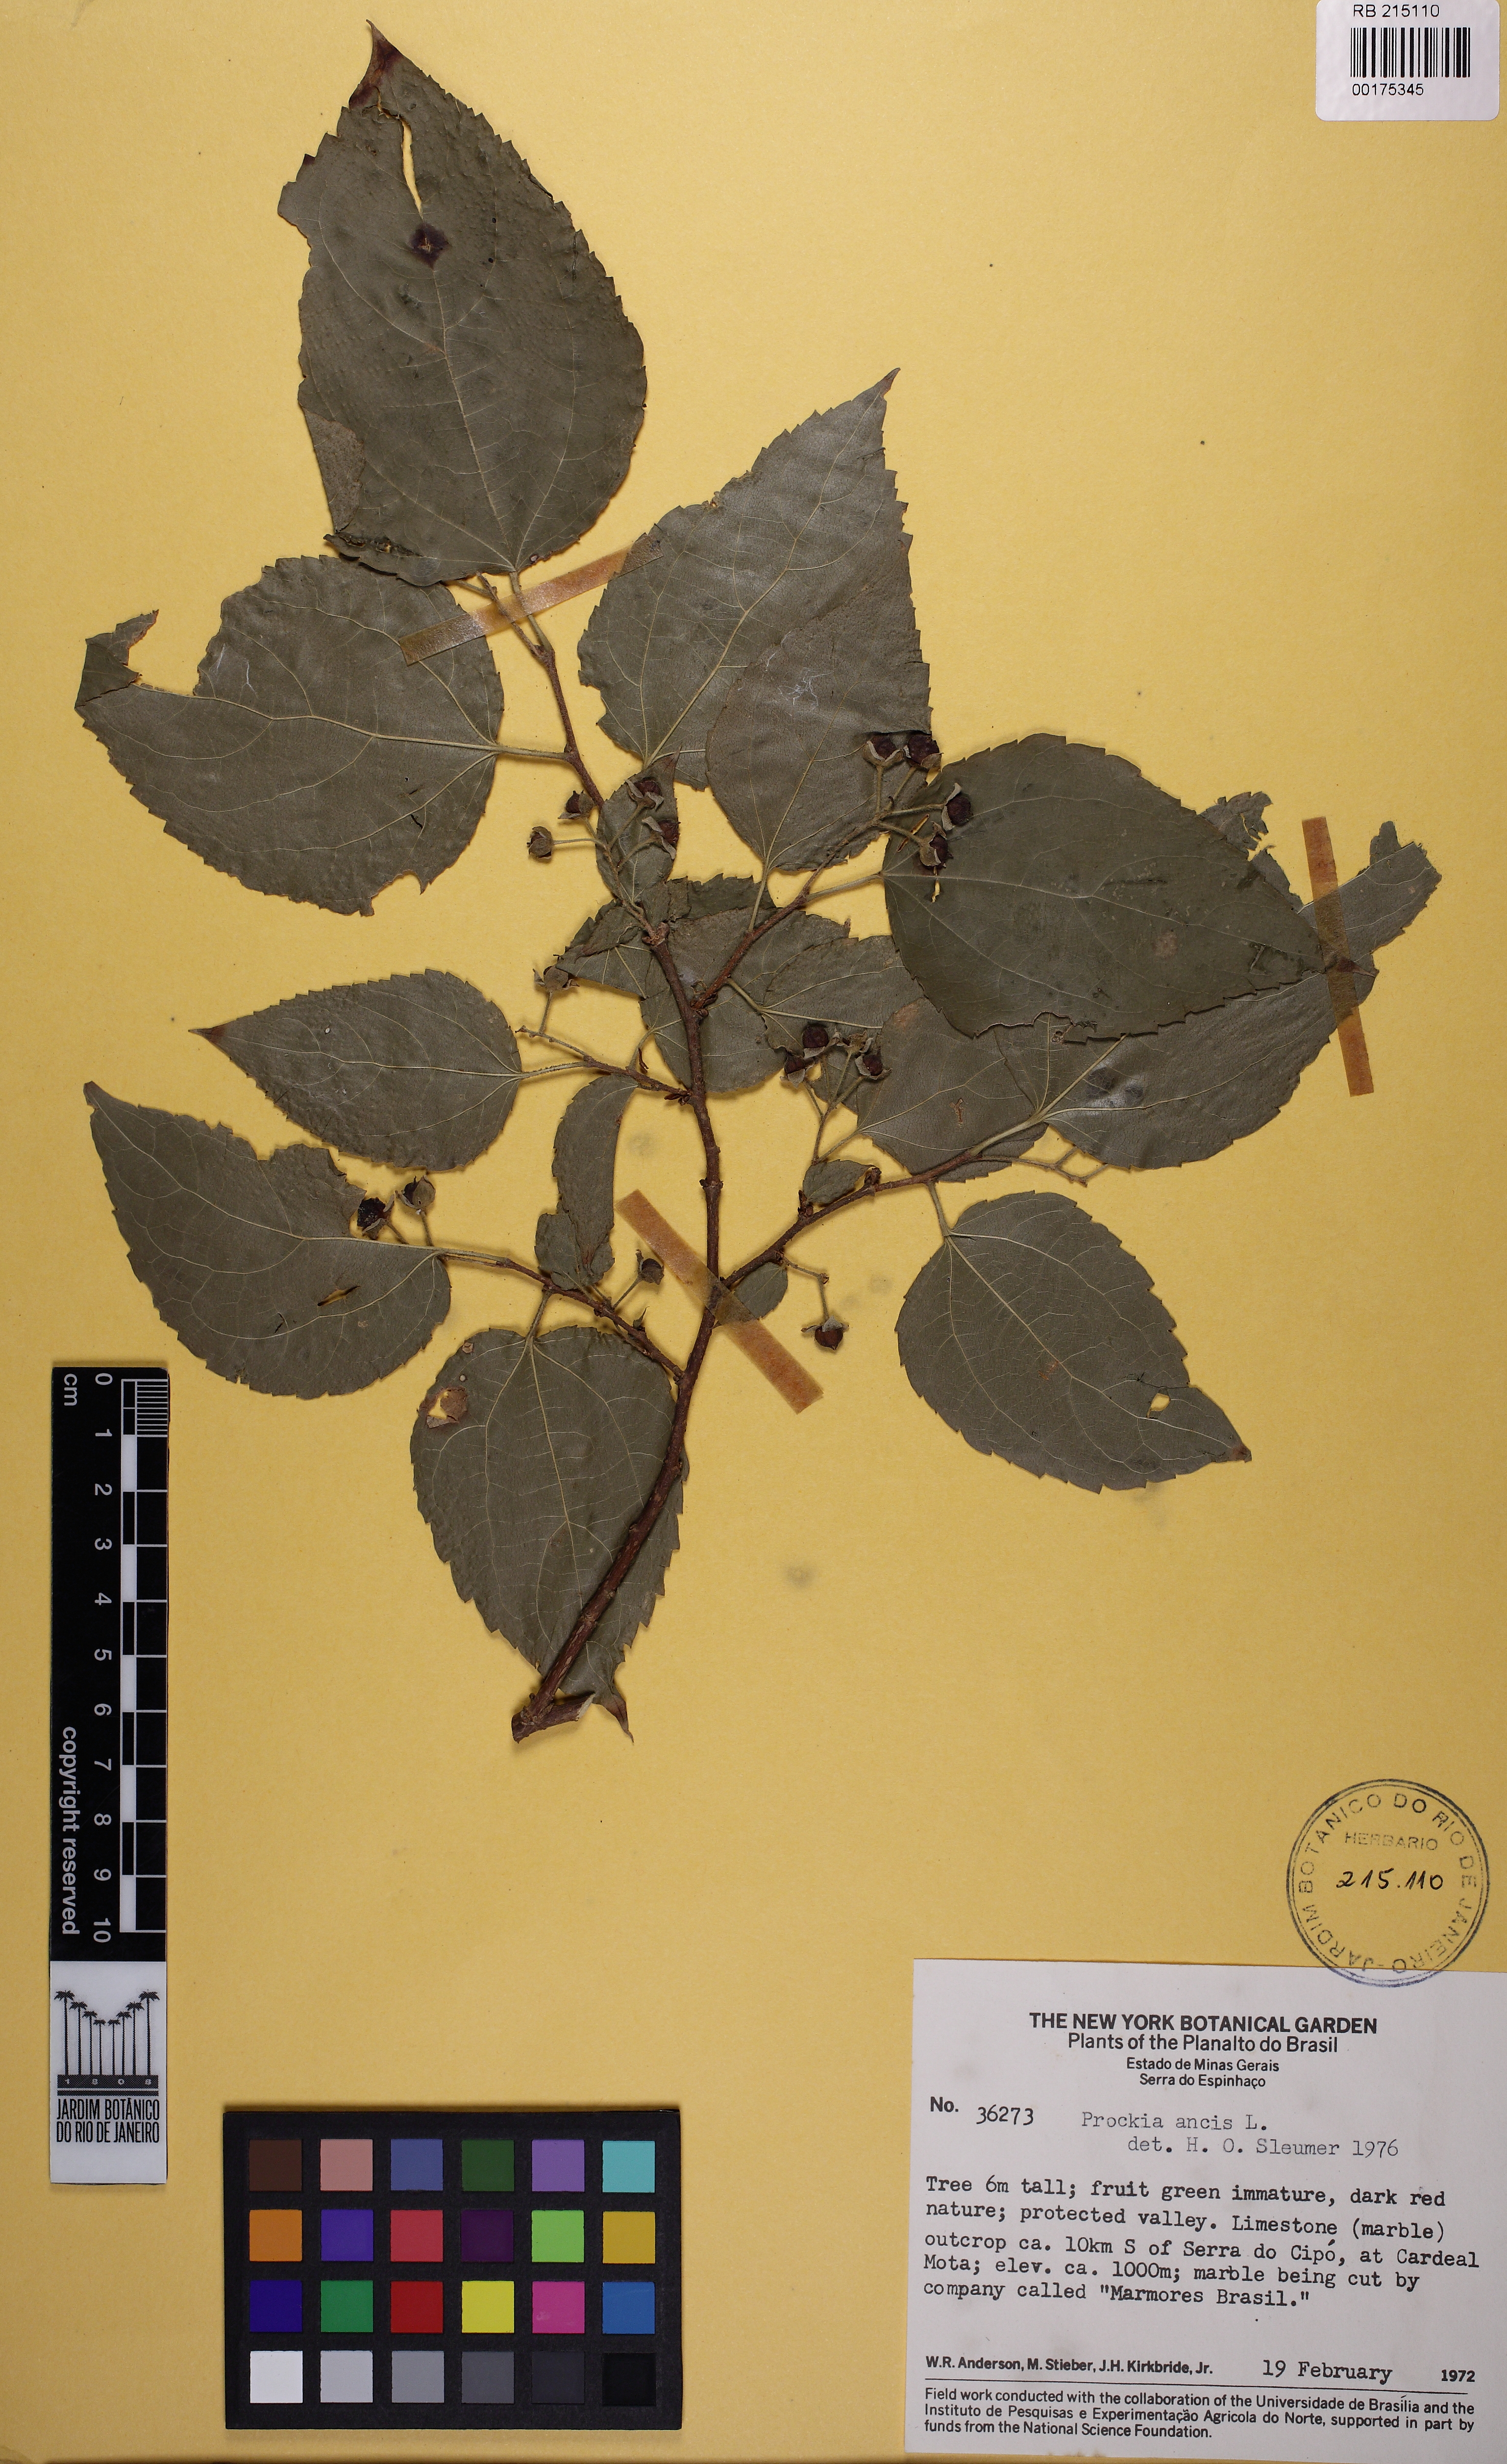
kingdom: Plantae
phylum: Tracheophyta
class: Magnoliopsida
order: Malpighiales
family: Salicaceae
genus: Prockia
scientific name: Prockia crucis
